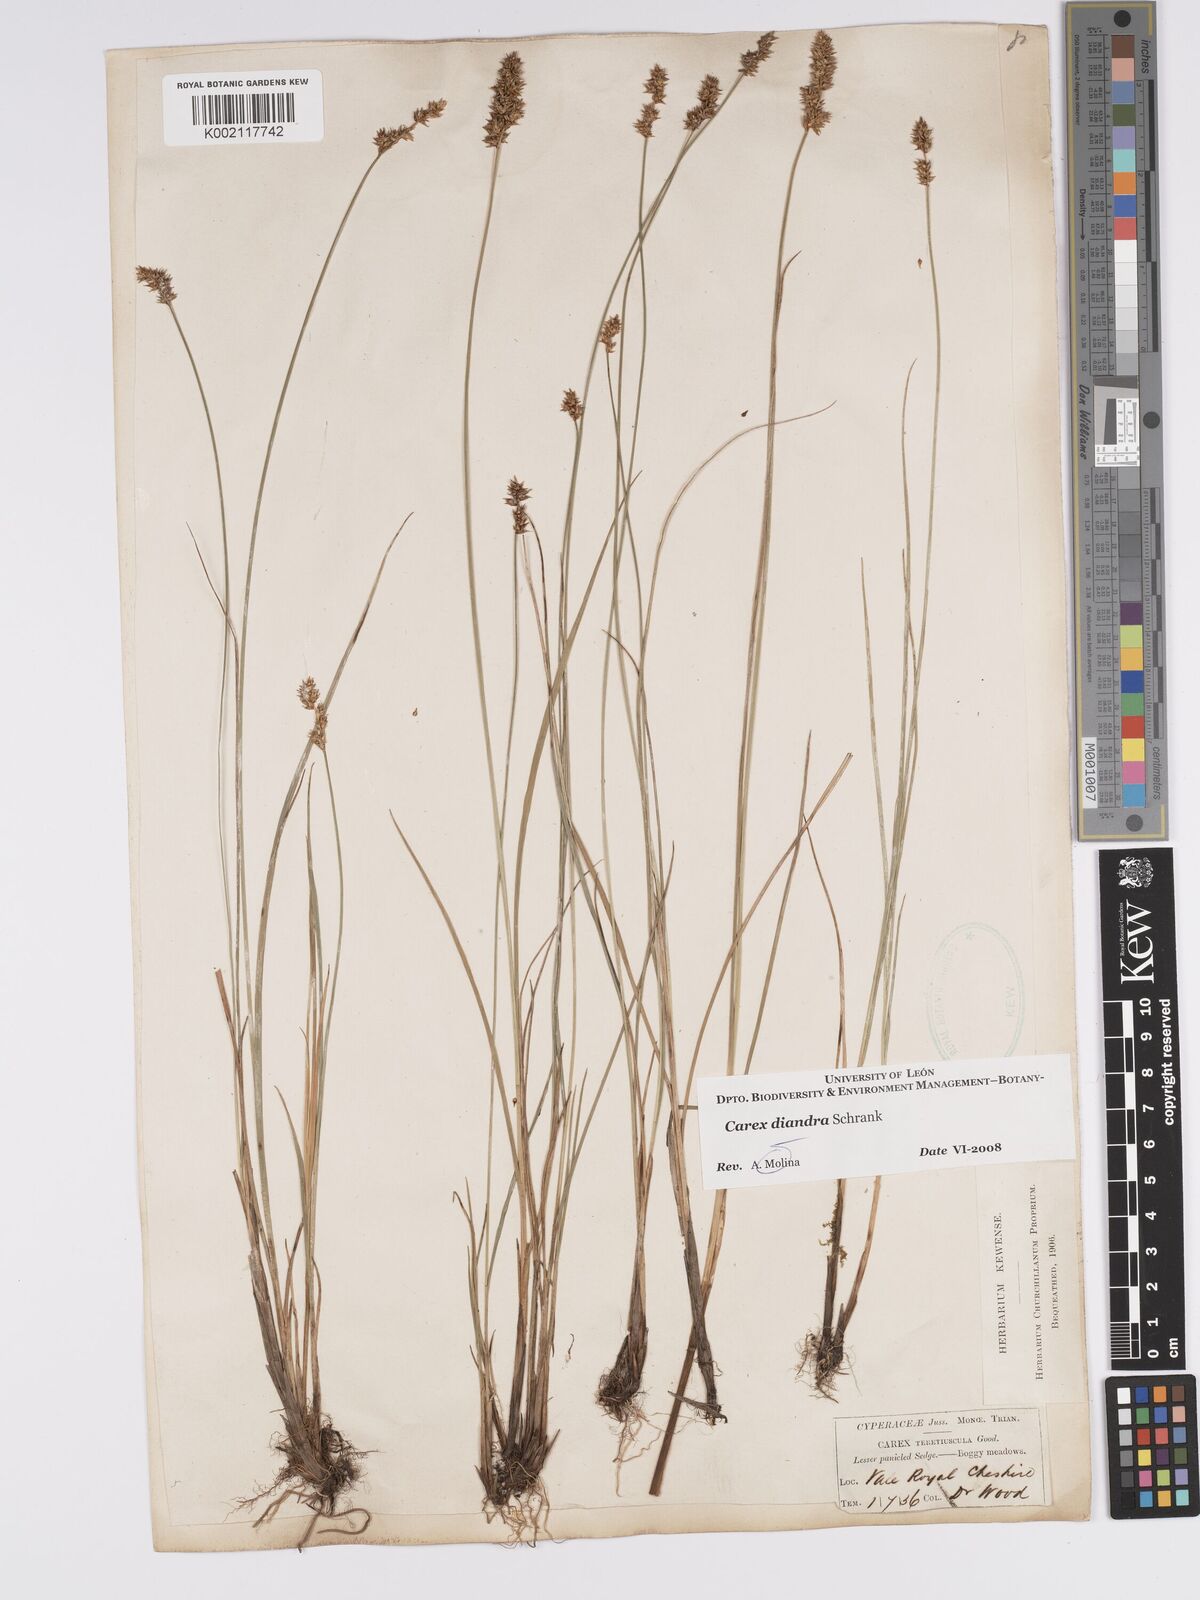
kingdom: Plantae
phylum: Tracheophyta
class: Liliopsida
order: Poales
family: Cyperaceae
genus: Carex
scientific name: Carex diandra
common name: Lesser tussock-sedge
